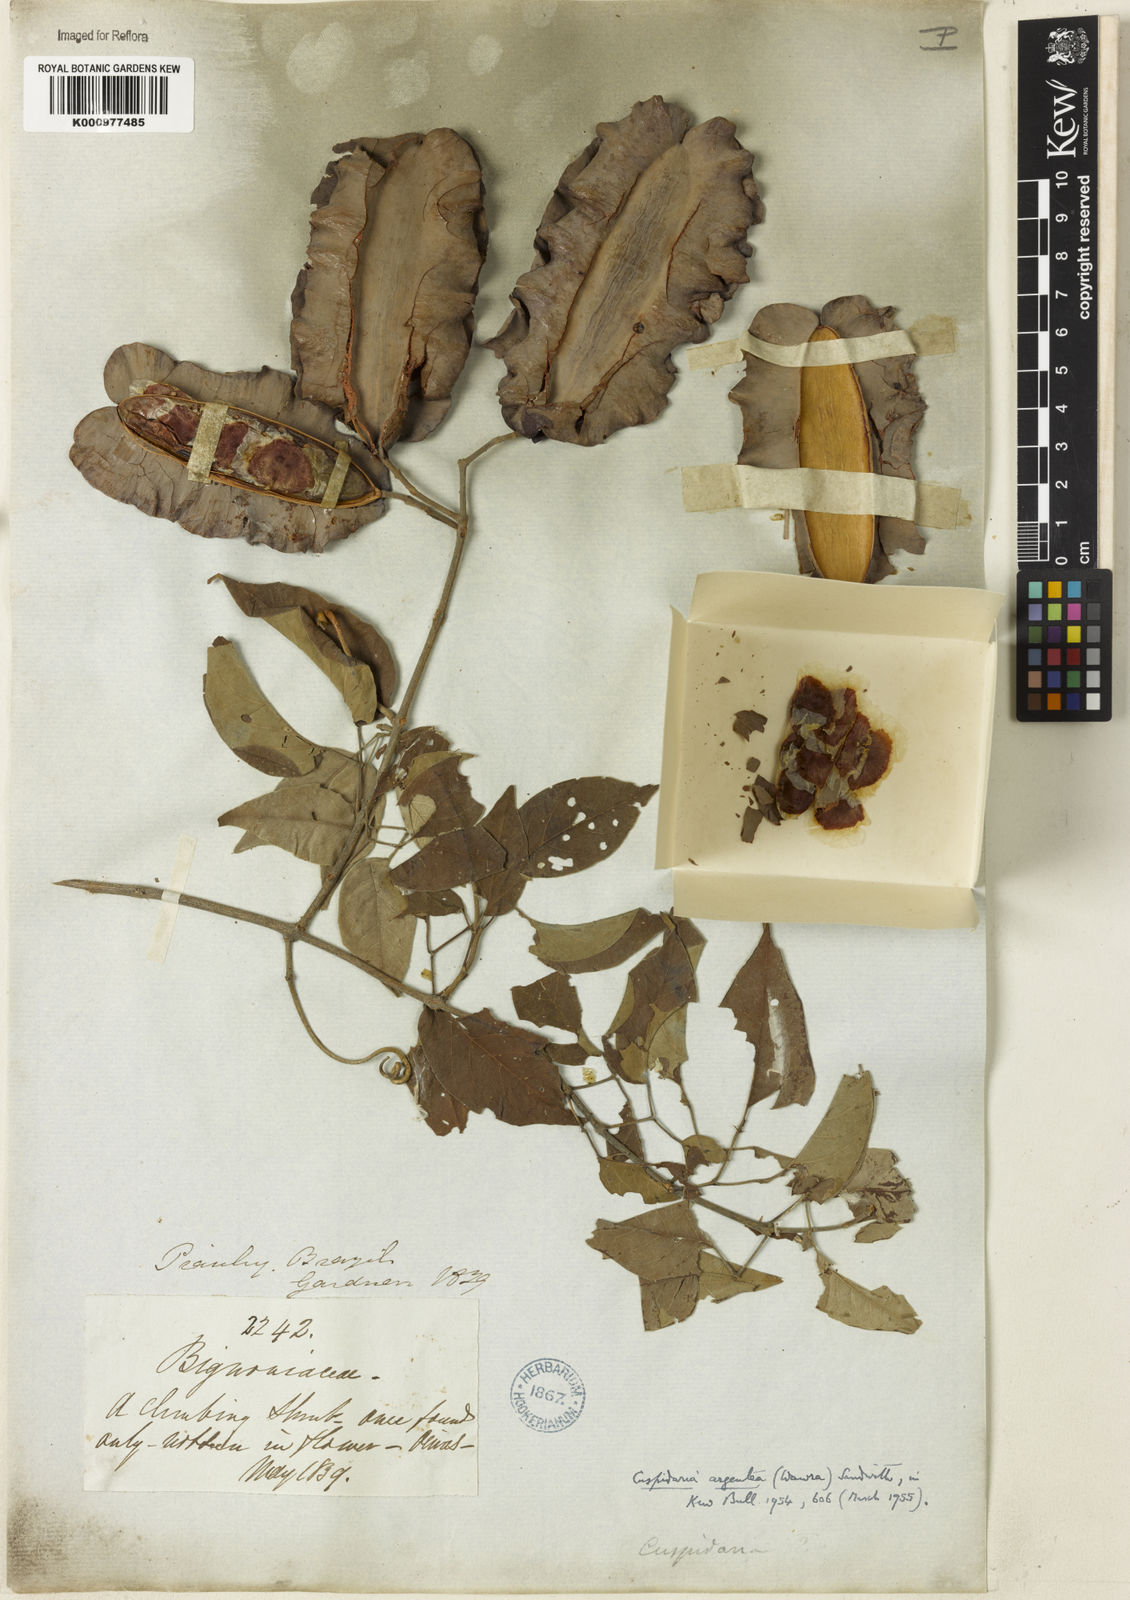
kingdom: Plantae
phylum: Tracheophyta
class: Magnoliopsida
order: Lamiales
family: Bignoniaceae
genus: Cuspidaria
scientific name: Cuspidaria argentea
